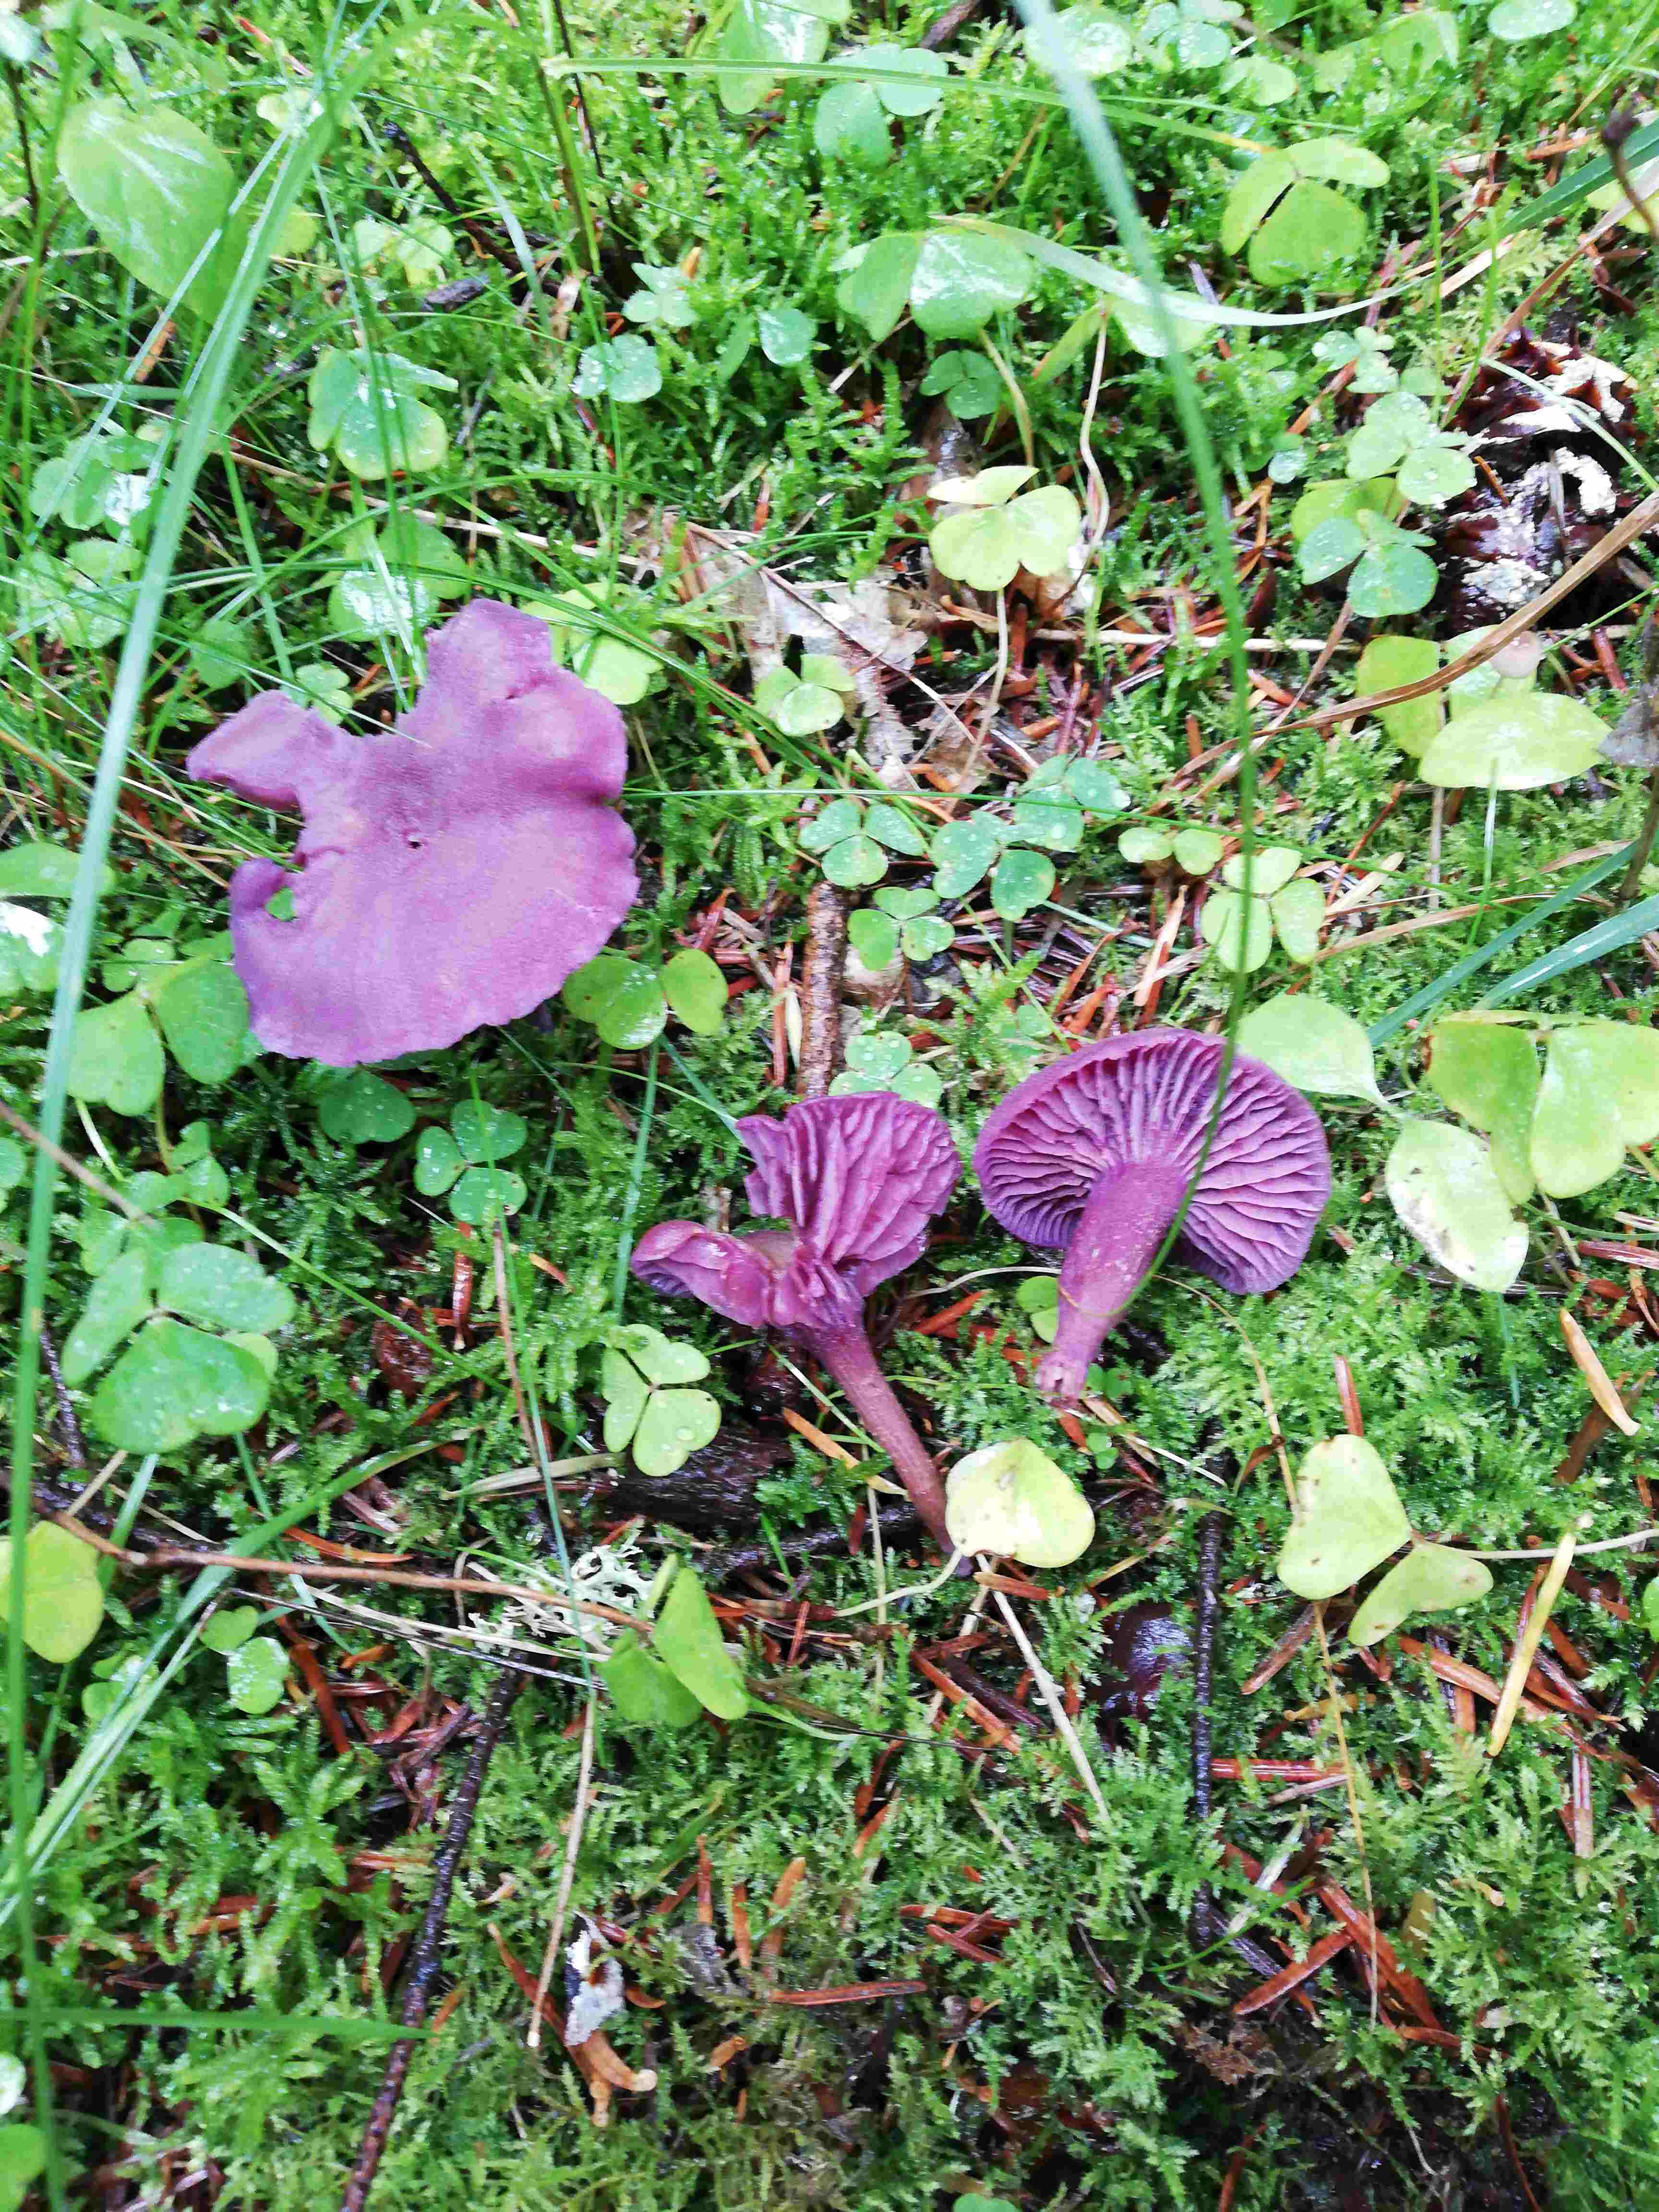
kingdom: Fungi
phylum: Basidiomycota
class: Agaricomycetes
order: Agaricales
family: Hydnangiaceae
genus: Laccaria
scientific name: Laccaria amethystina
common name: violet ametysthat
